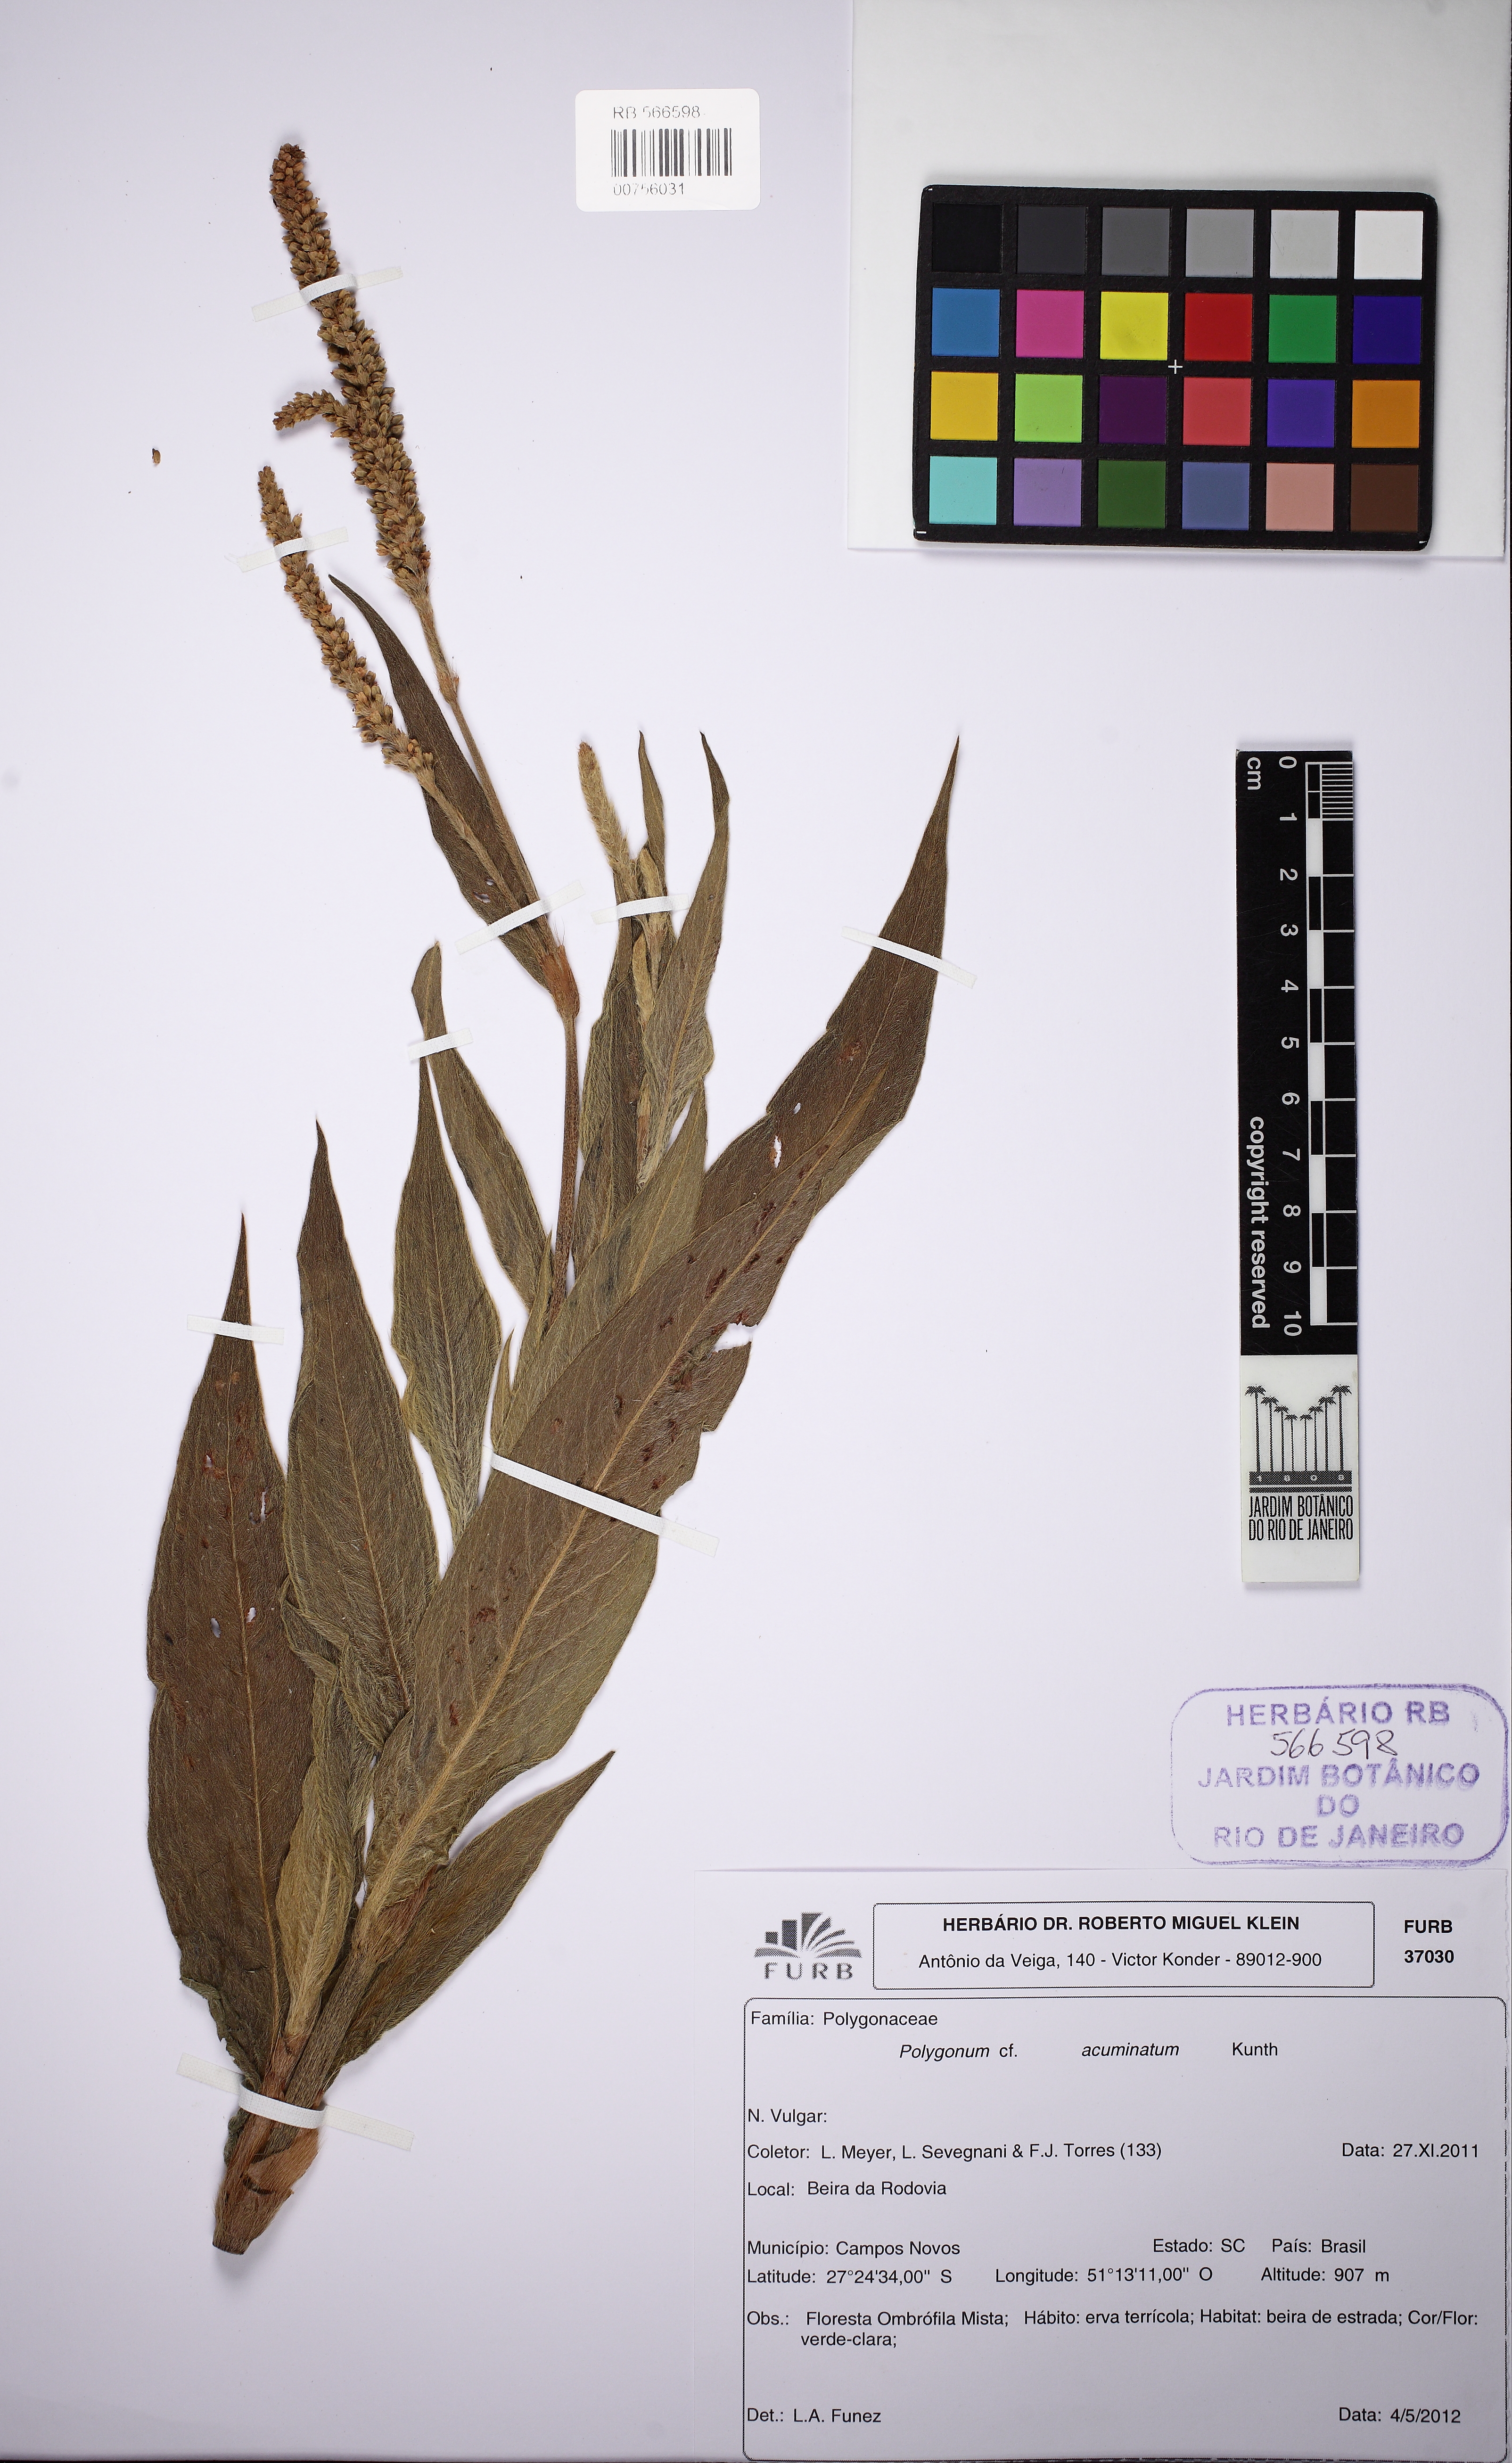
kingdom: Plantae
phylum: Tracheophyta
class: Magnoliopsida
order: Caryophyllales
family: Polygonaceae
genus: Persicaria
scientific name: Persicaria acuminata
